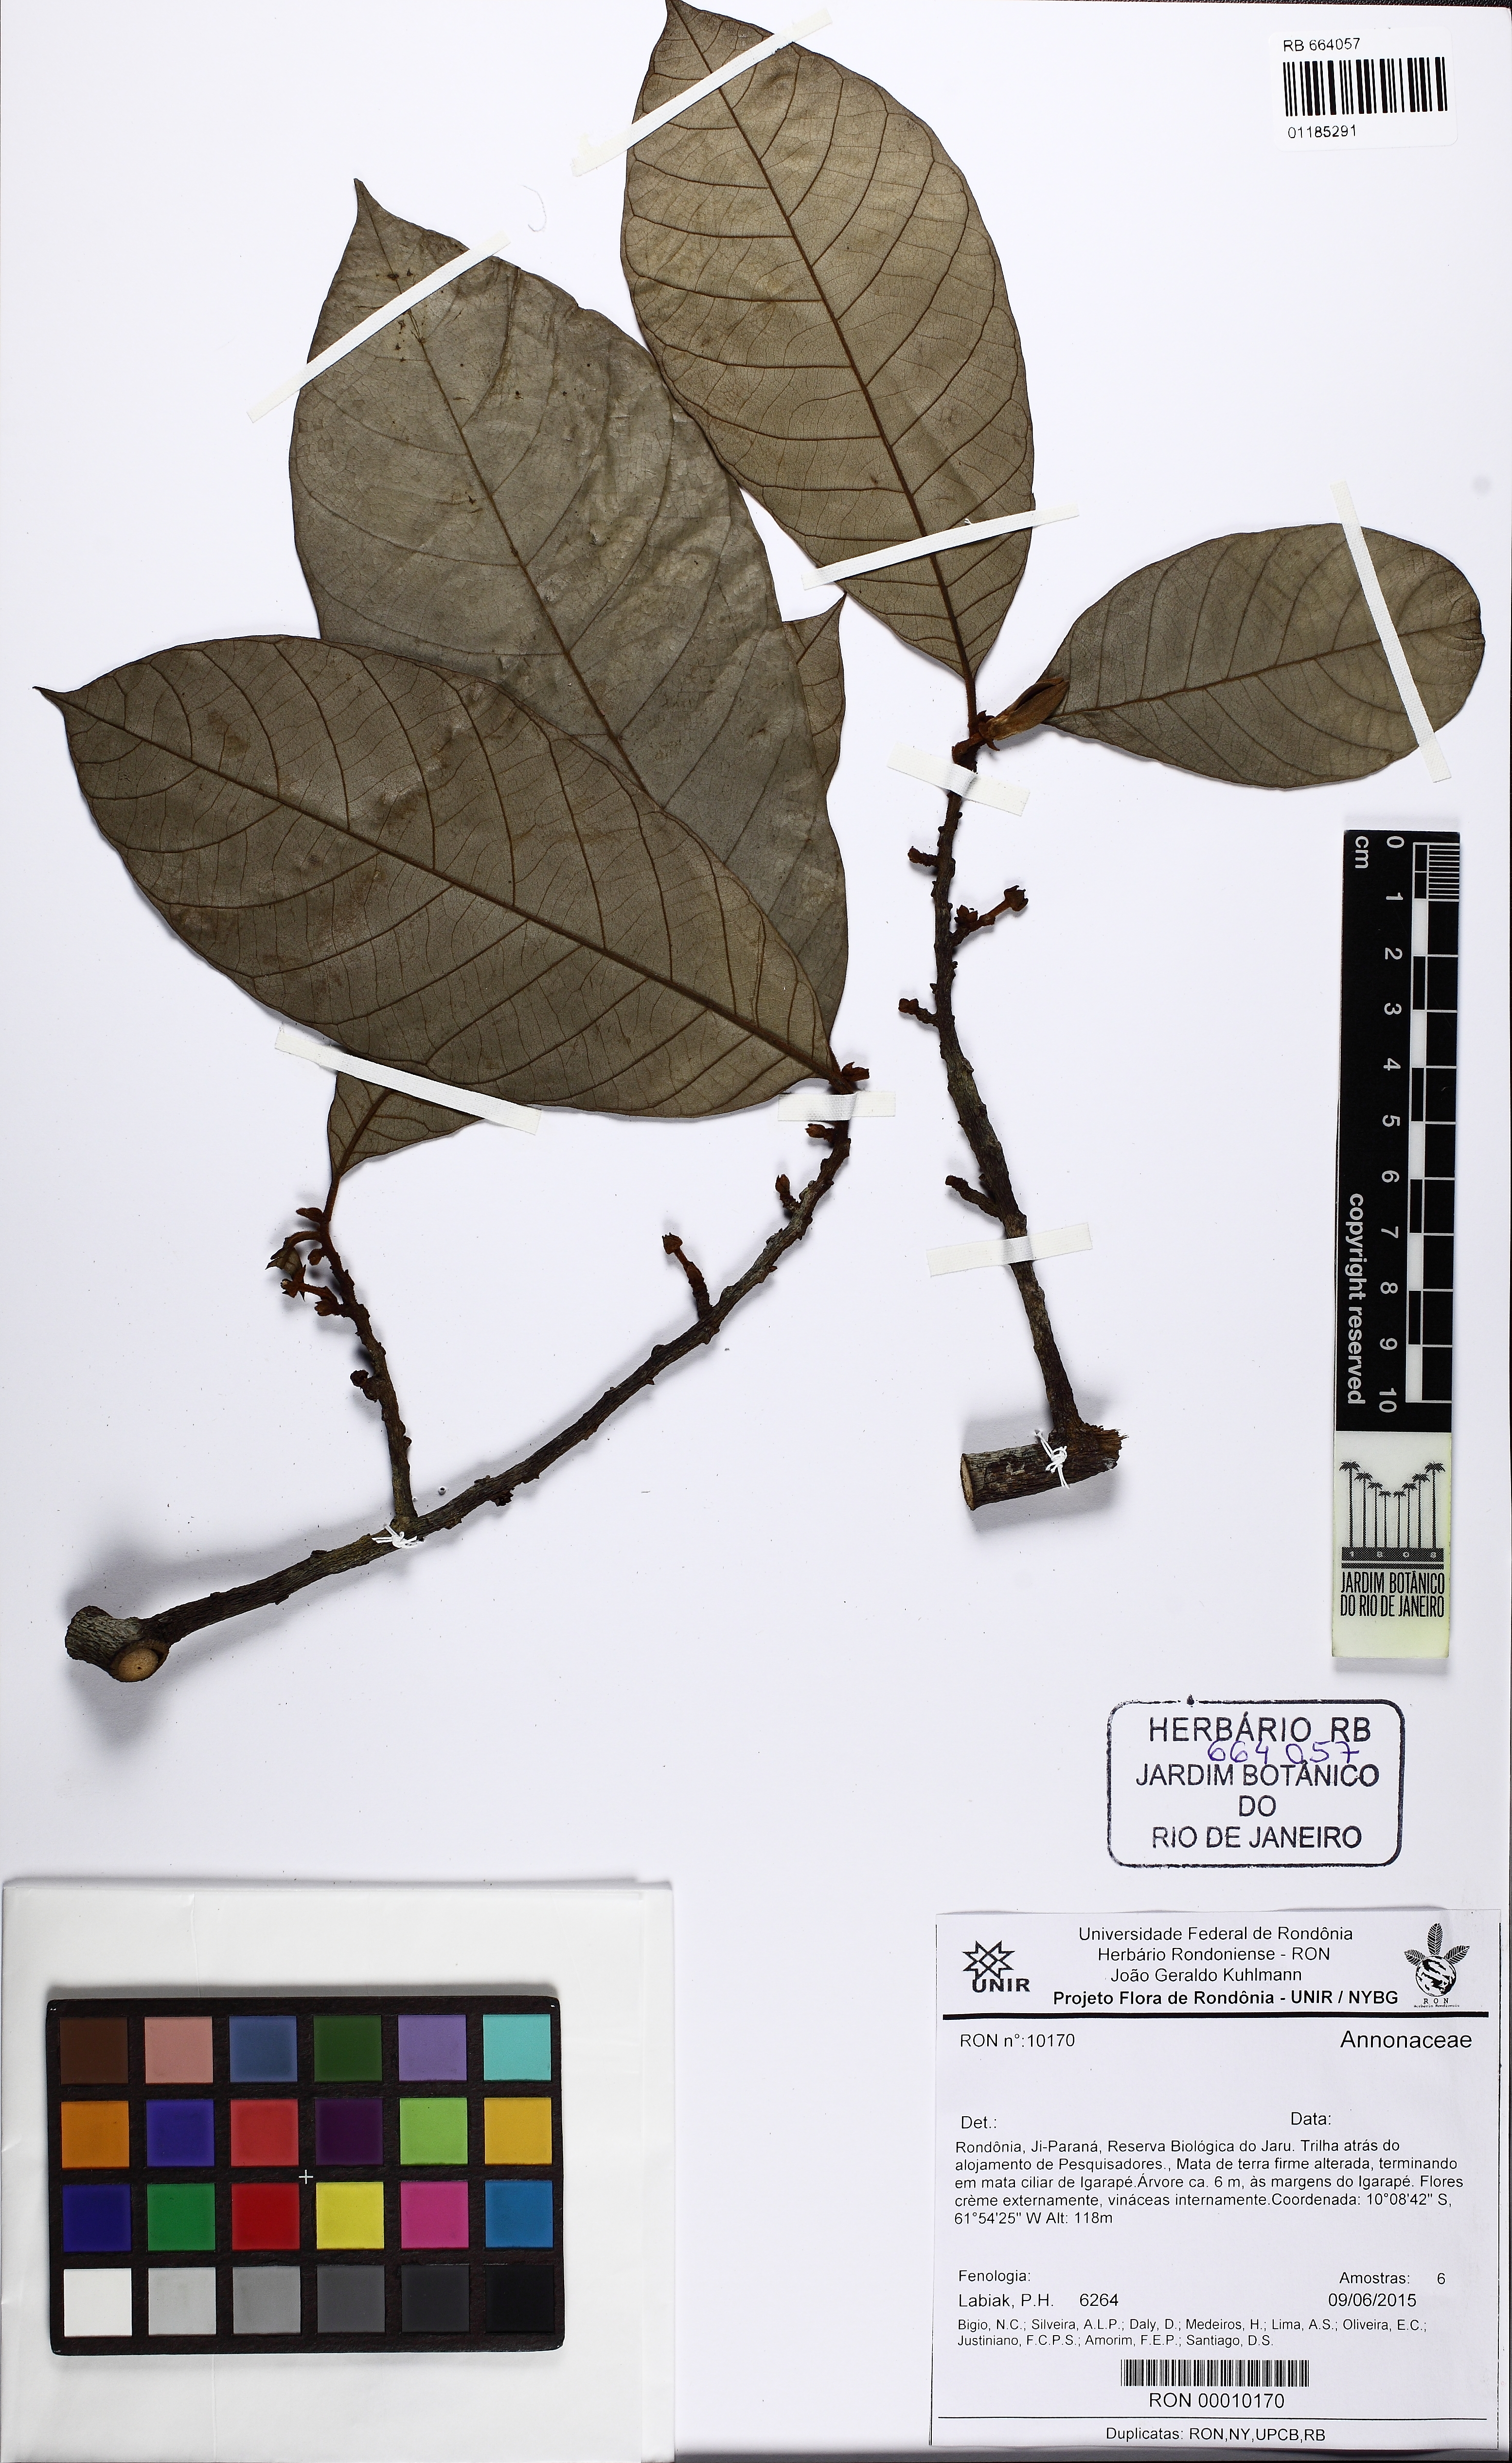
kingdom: Plantae
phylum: Tracheophyta
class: Magnoliopsida
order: Magnoliales
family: Annonaceae
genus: Annona
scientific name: Annona ambotay
